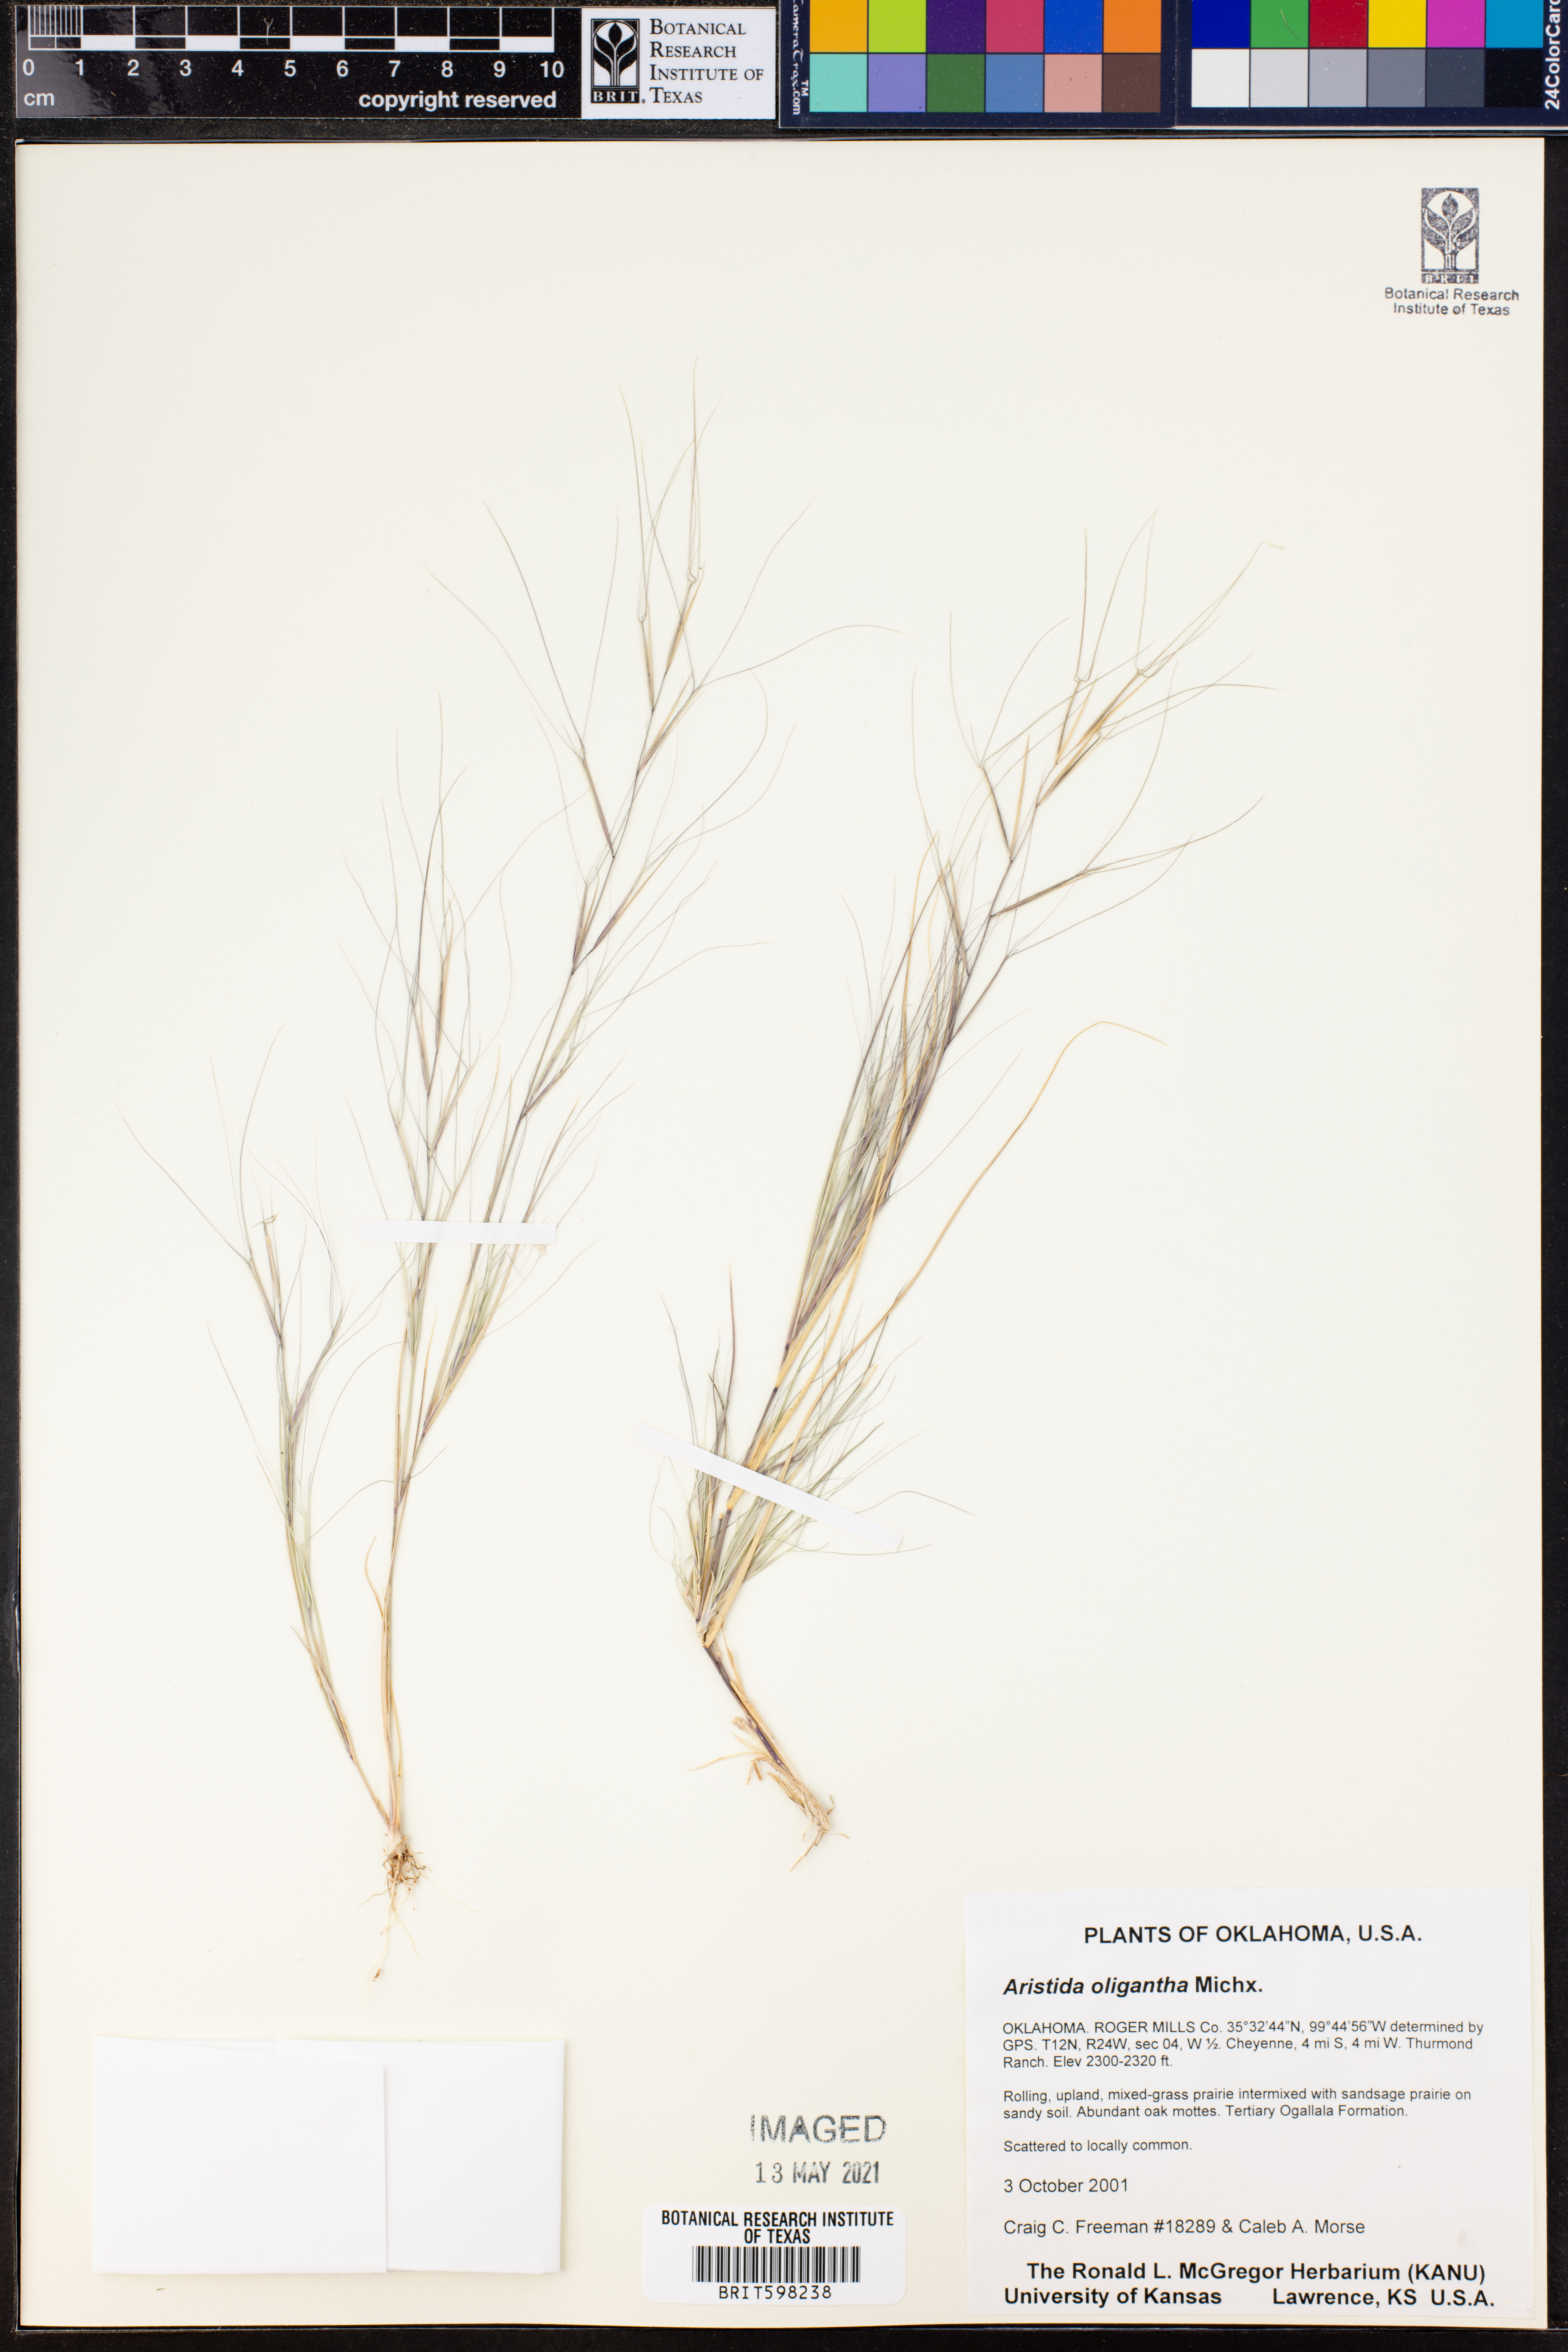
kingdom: Plantae
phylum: Tracheophyta
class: Liliopsida
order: Poales
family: Poaceae
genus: Aristida
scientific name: Aristida oligantha
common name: Few-flowered aristida
